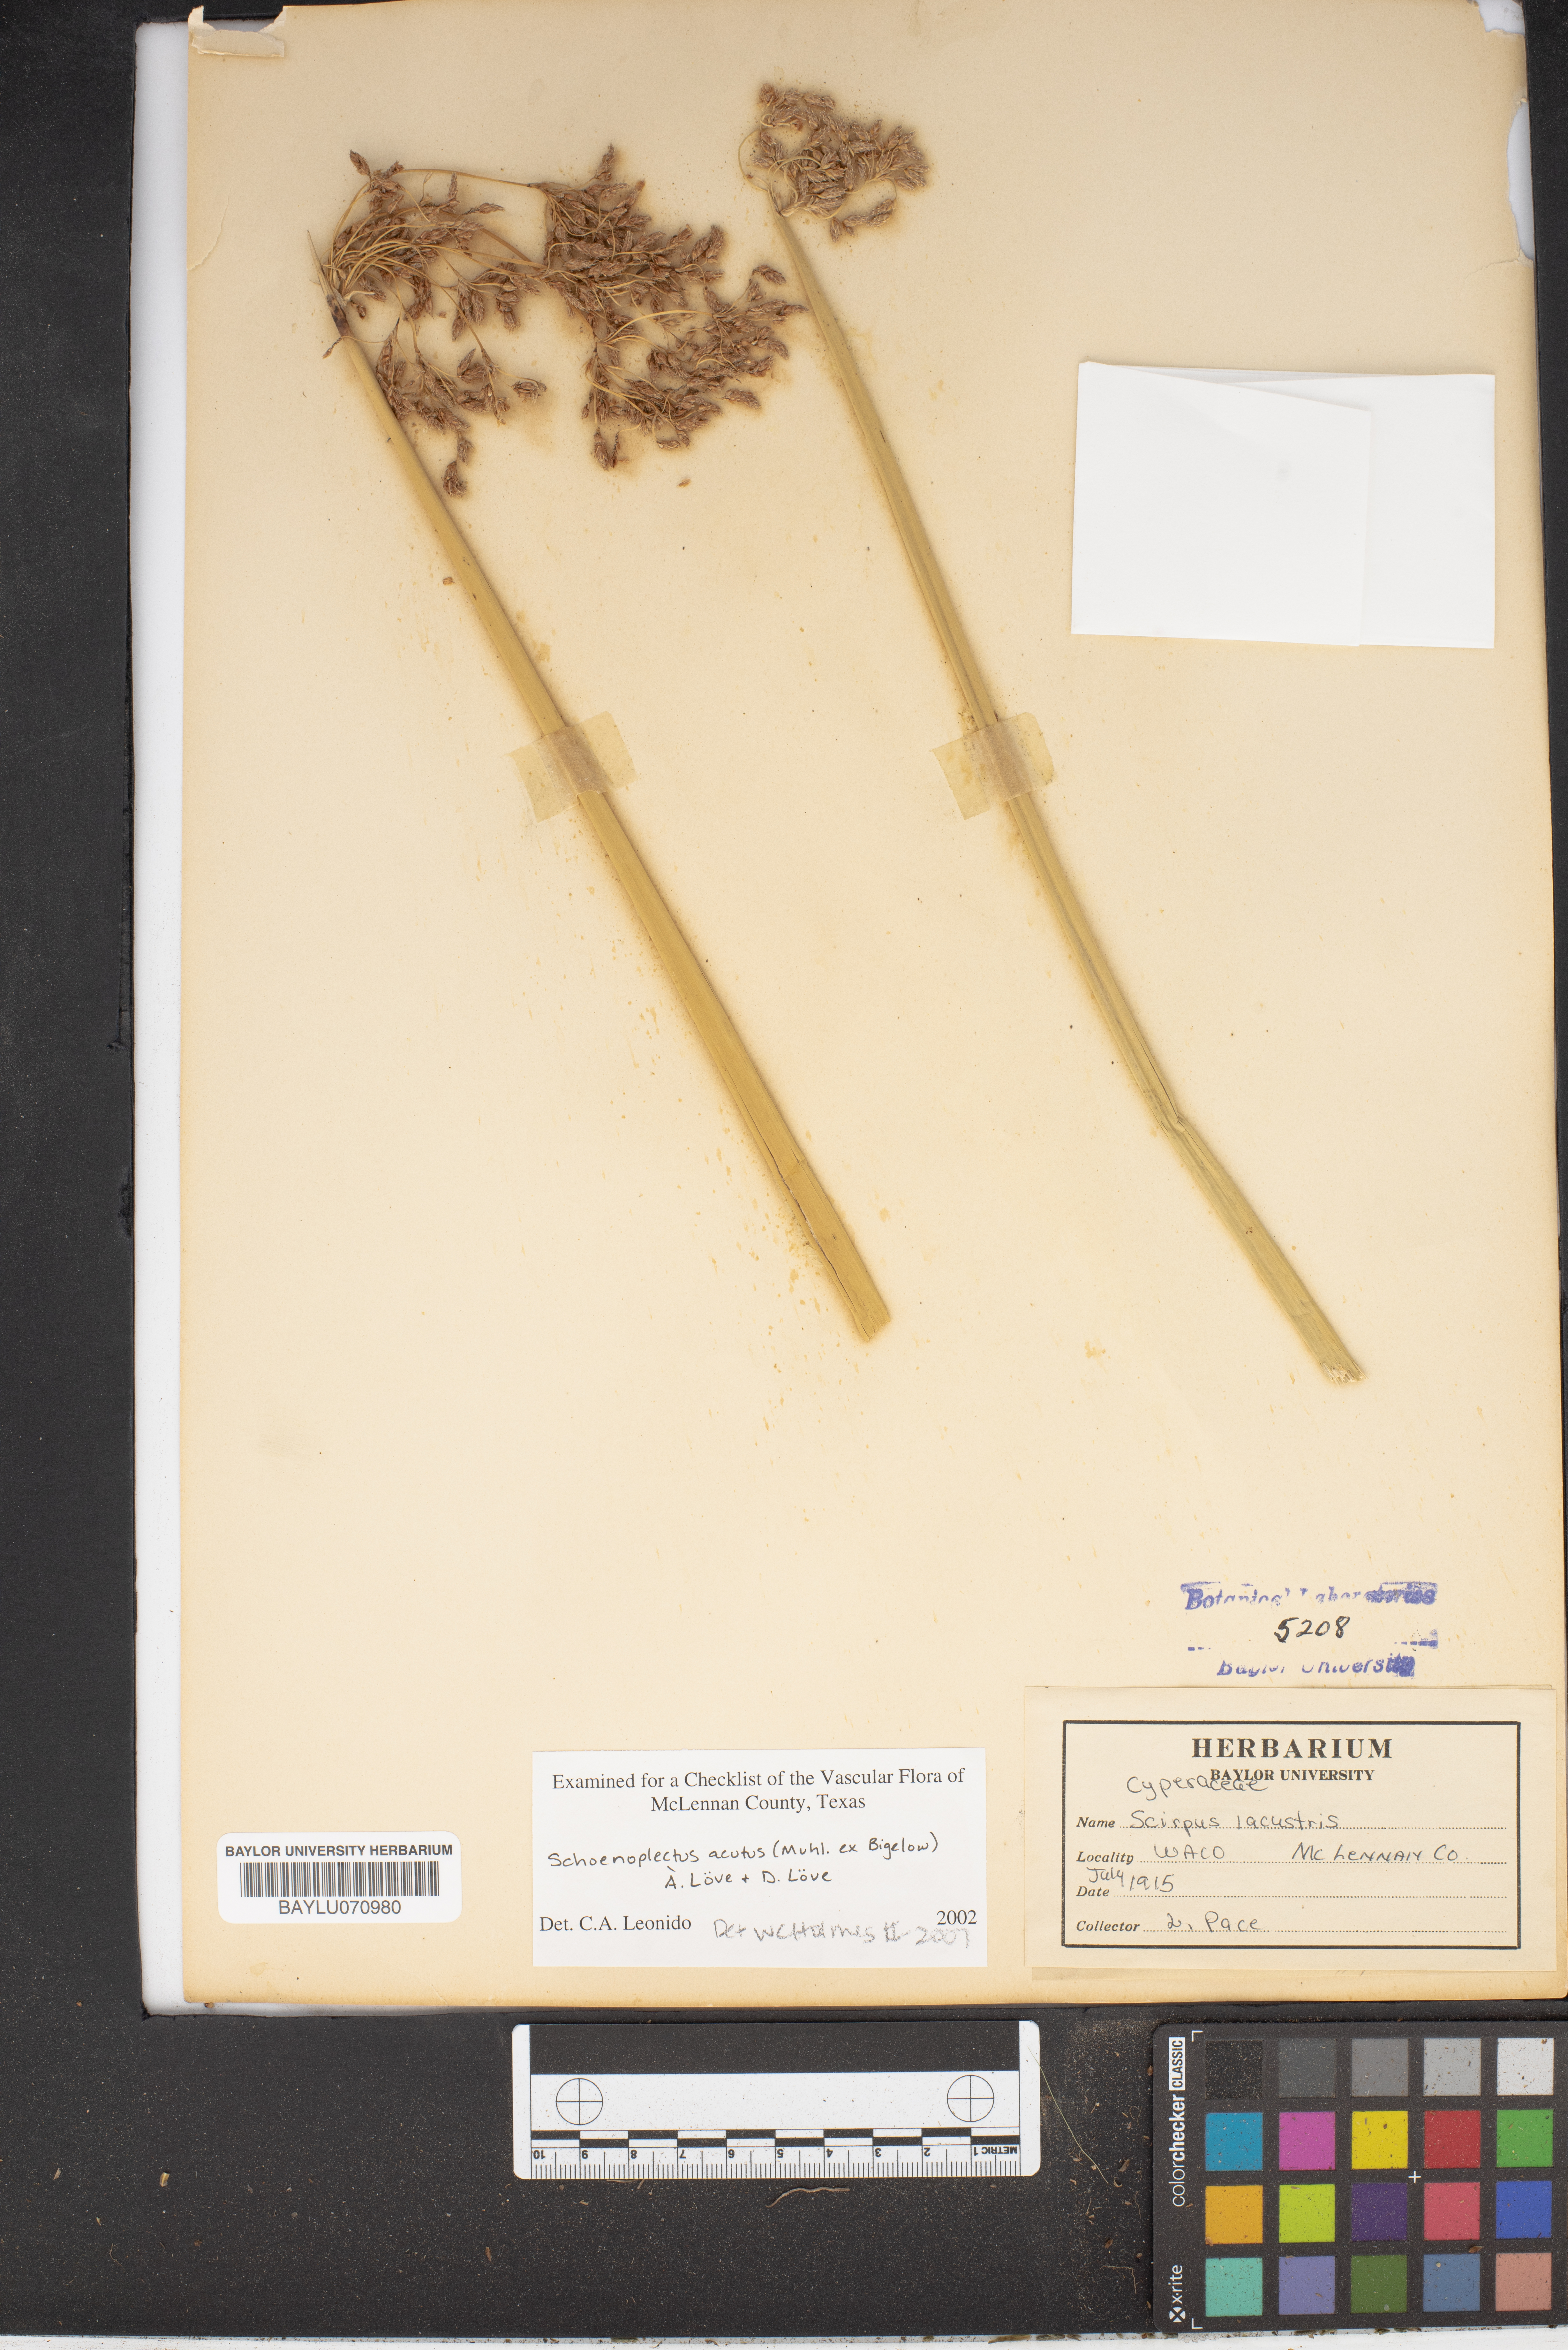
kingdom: Plantae
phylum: Tracheophyta
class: Liliopsida
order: Poales
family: Cyperaceae
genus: Schoenoplectus
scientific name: Schoenoplectus acutus
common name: Hardstem bulrush
